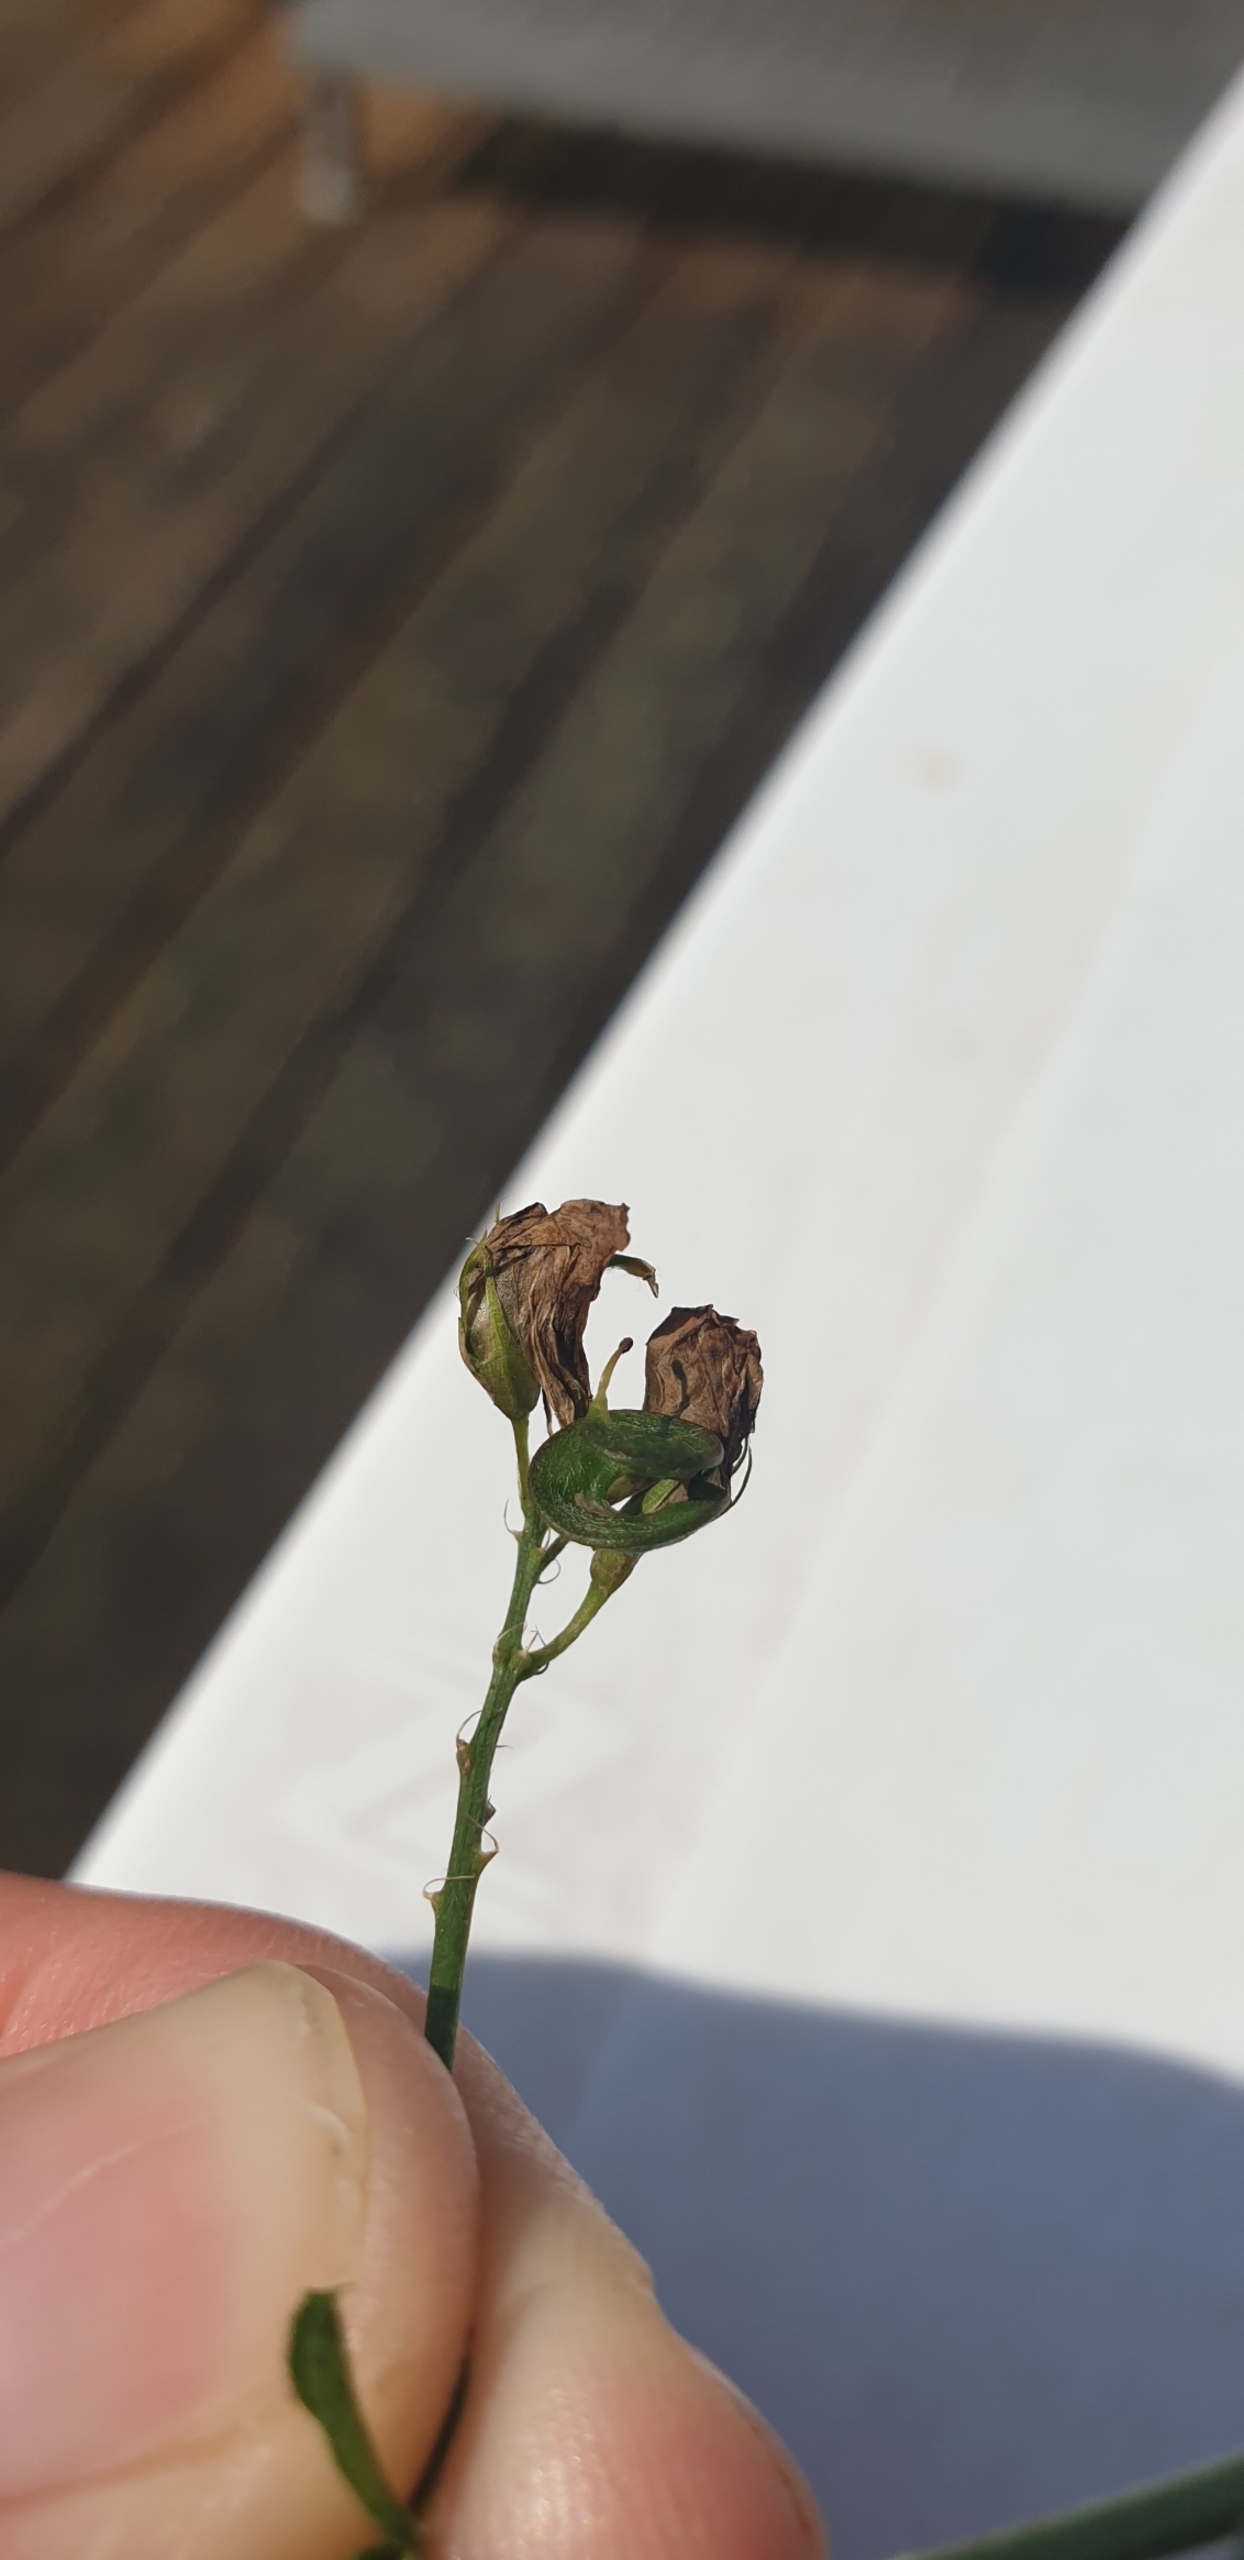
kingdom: Plantae
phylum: Tracheophyta
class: Magnoliopsida
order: Fabales
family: Fabaceae
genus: Medicago
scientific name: Medicago sativa
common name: Foderlucerne
